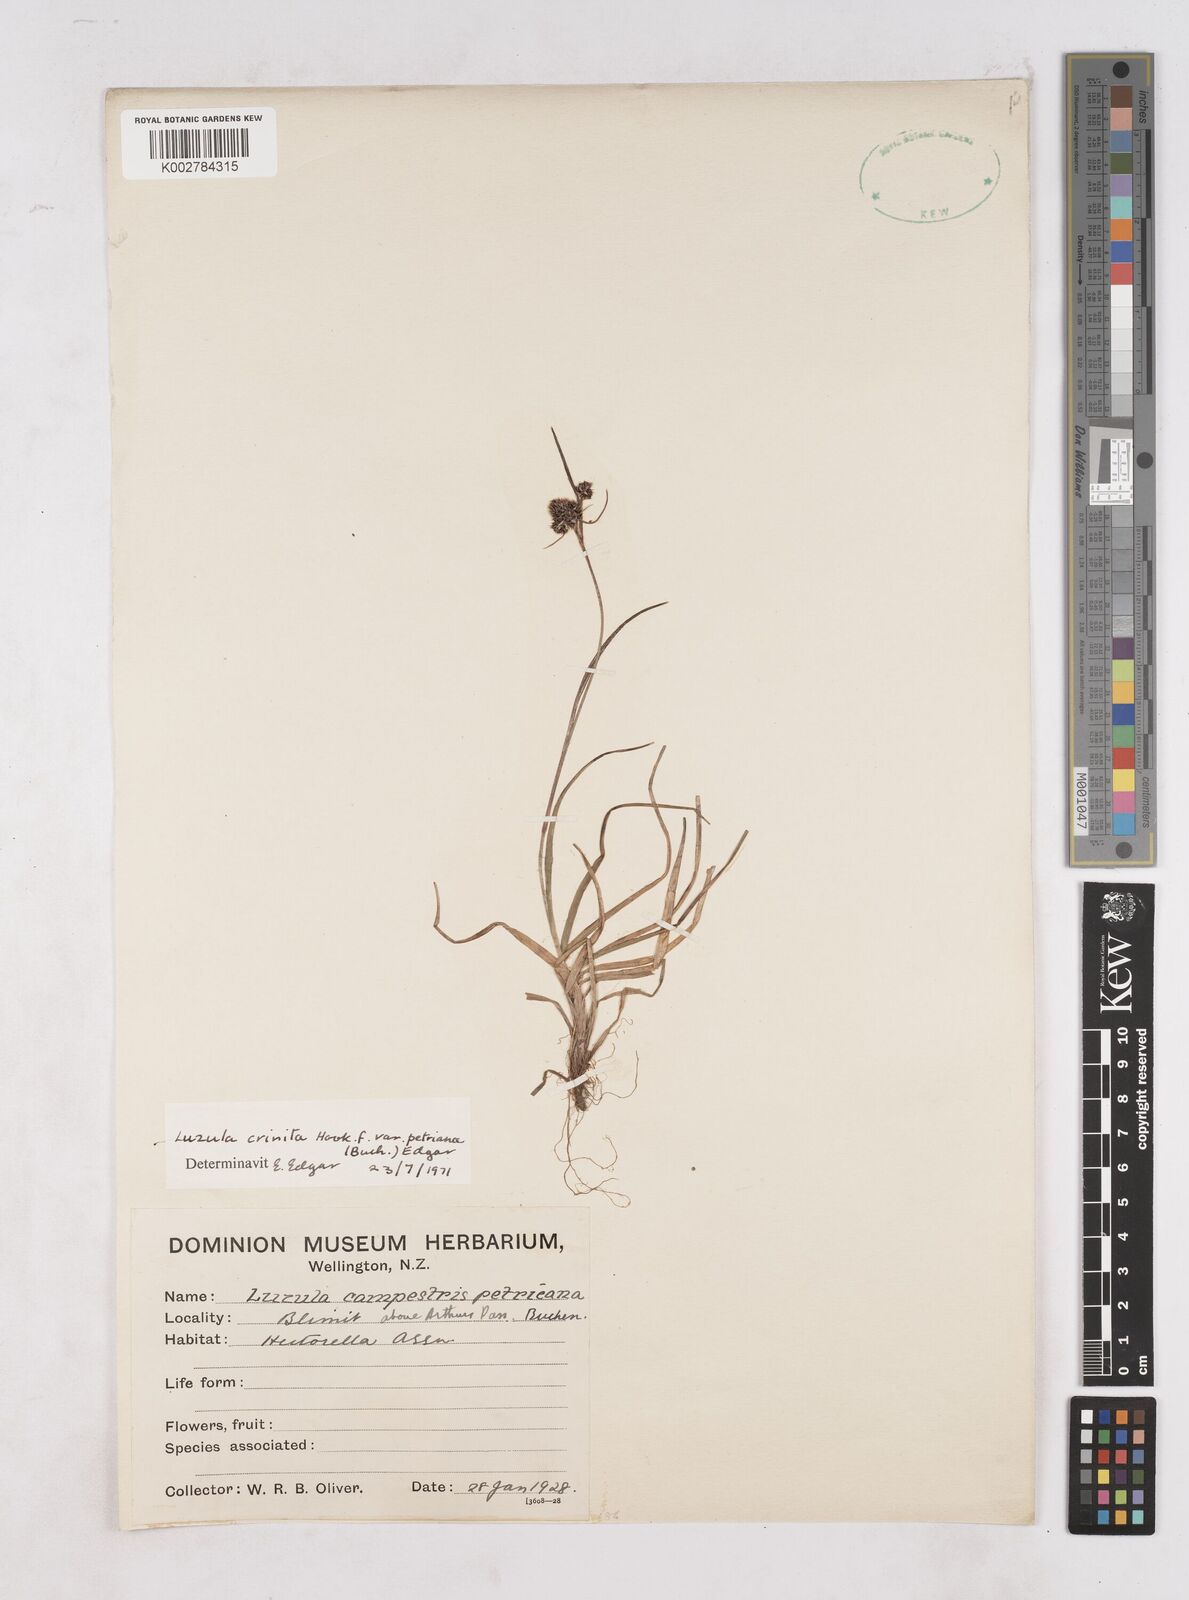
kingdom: Plantae
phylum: Tracheophyta
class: Liliopsida
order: Poales
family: Juncaceae
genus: Luzula
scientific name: Luzula crenulata
